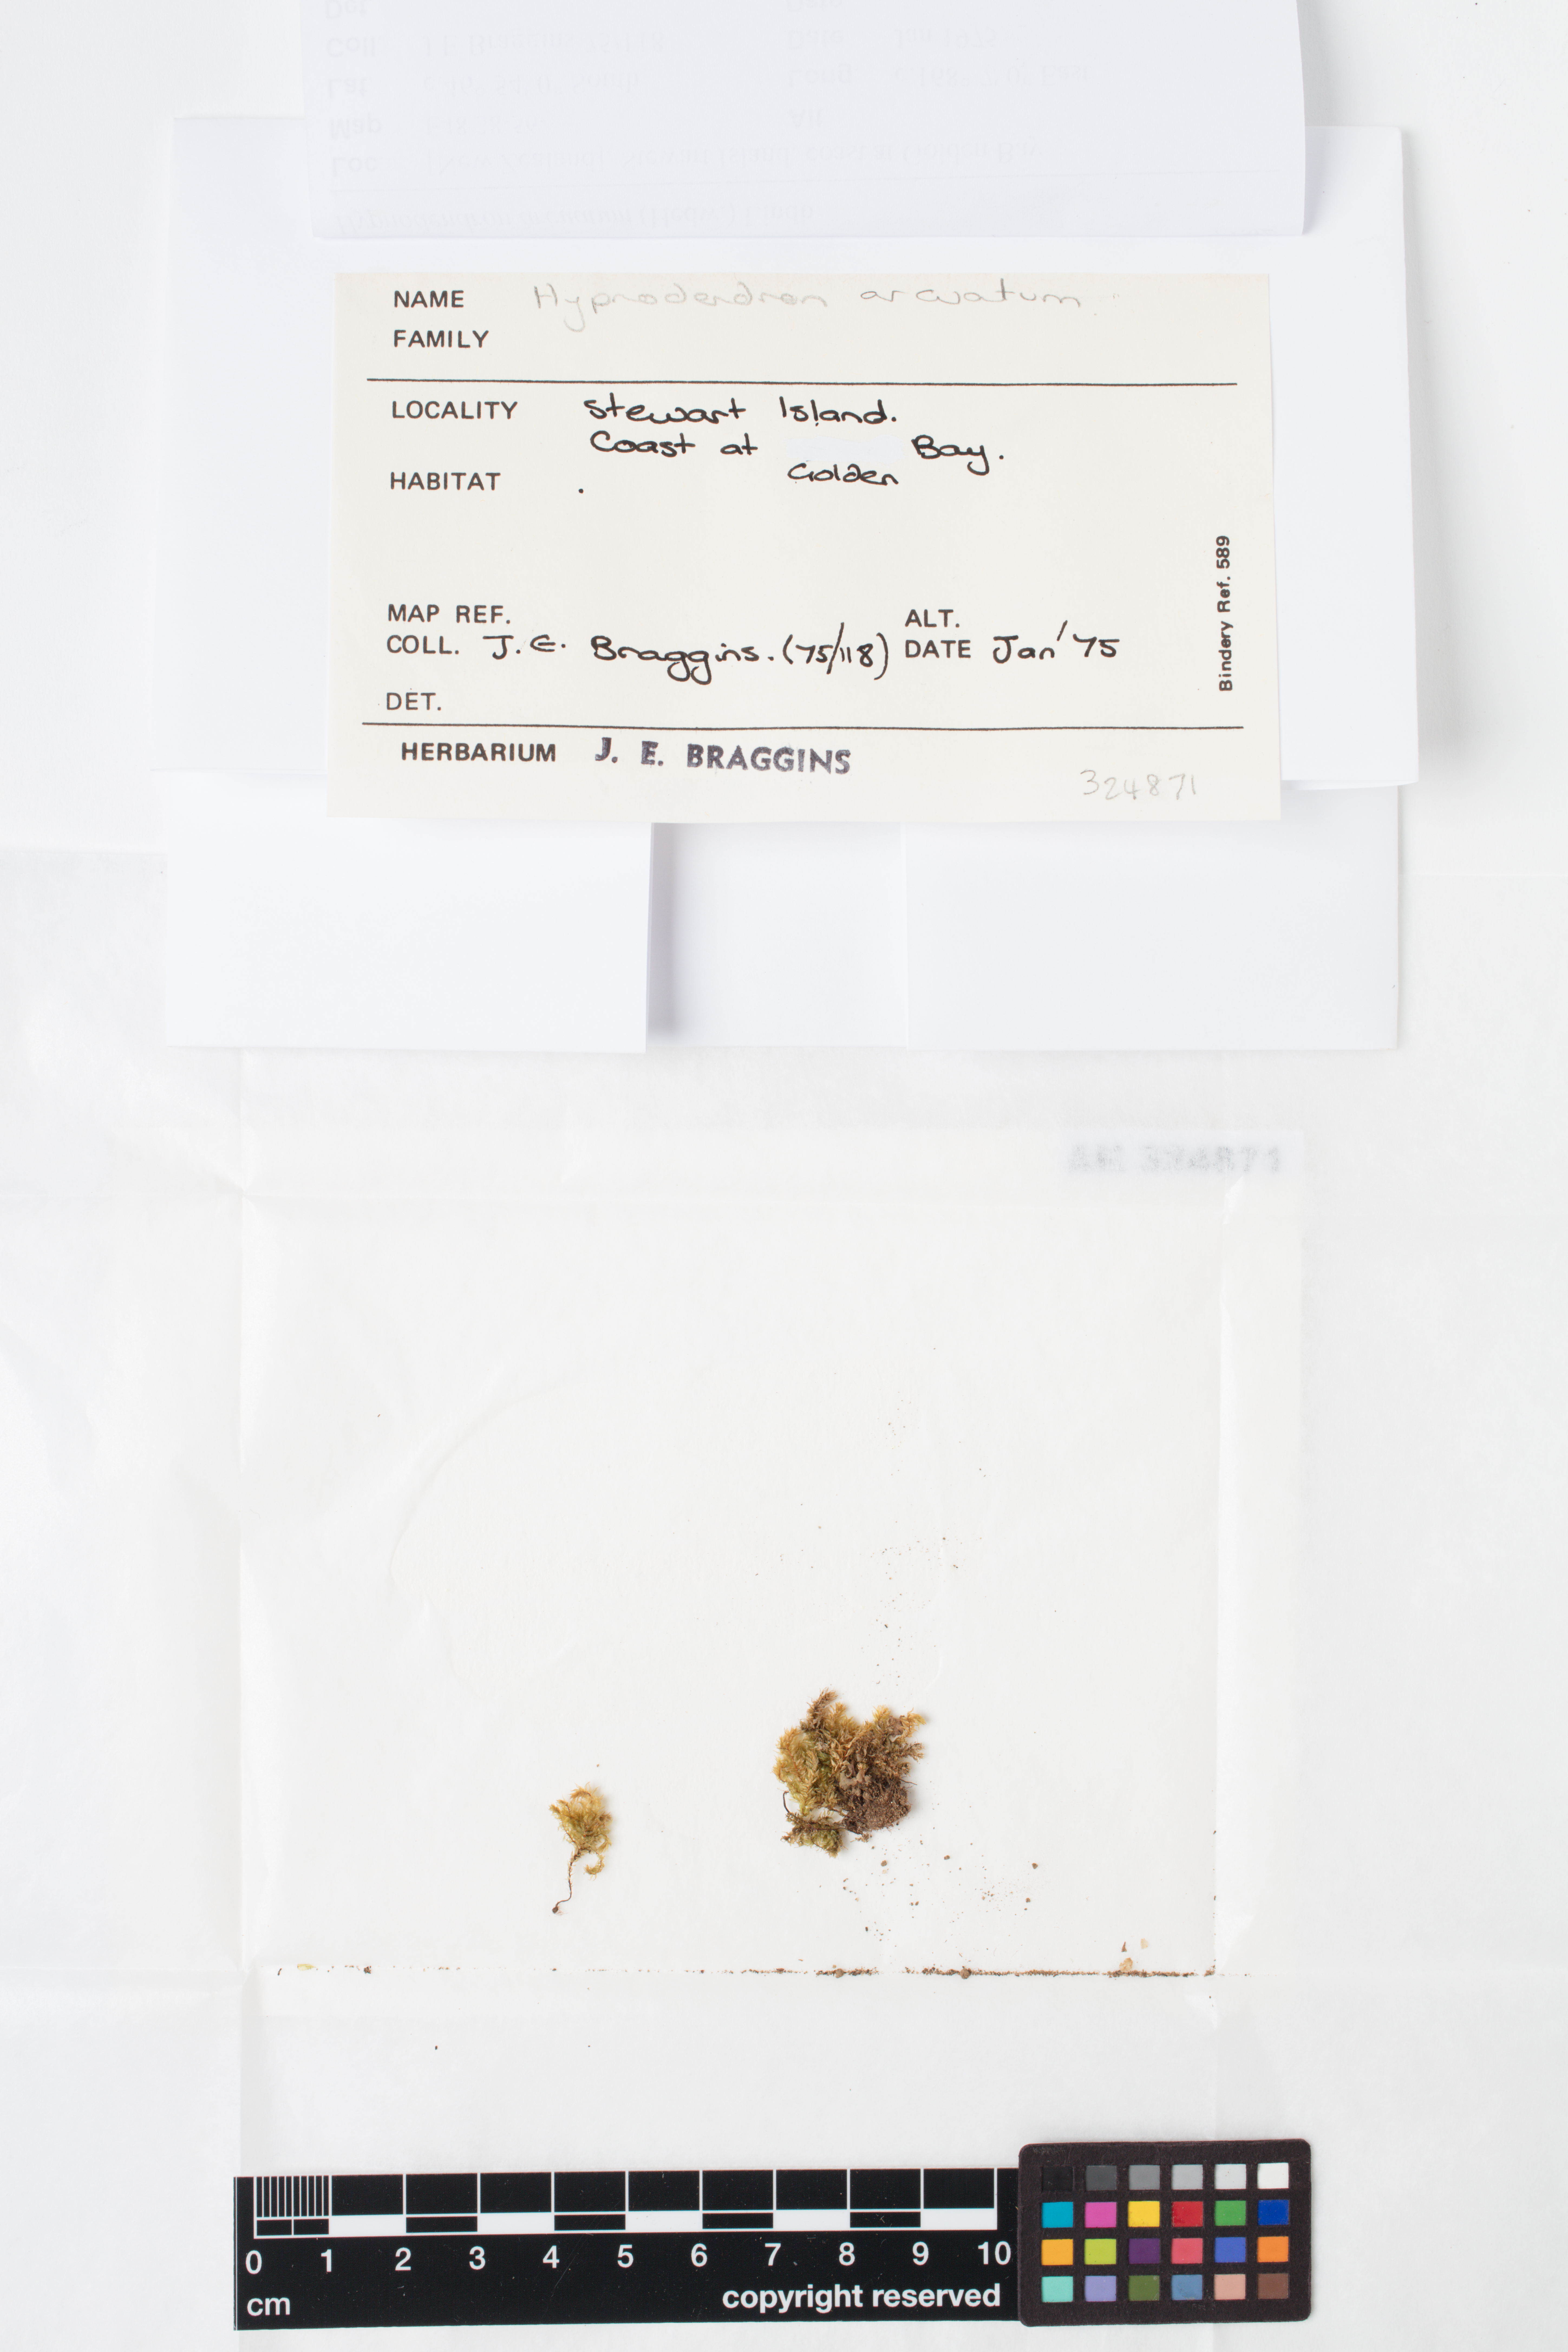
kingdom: Plantae
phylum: Bryophyta
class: Bryopsida
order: Hypnodendrales
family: Spiridentaceae
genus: Hypnodendron
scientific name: Hypnodendron arcuatum
